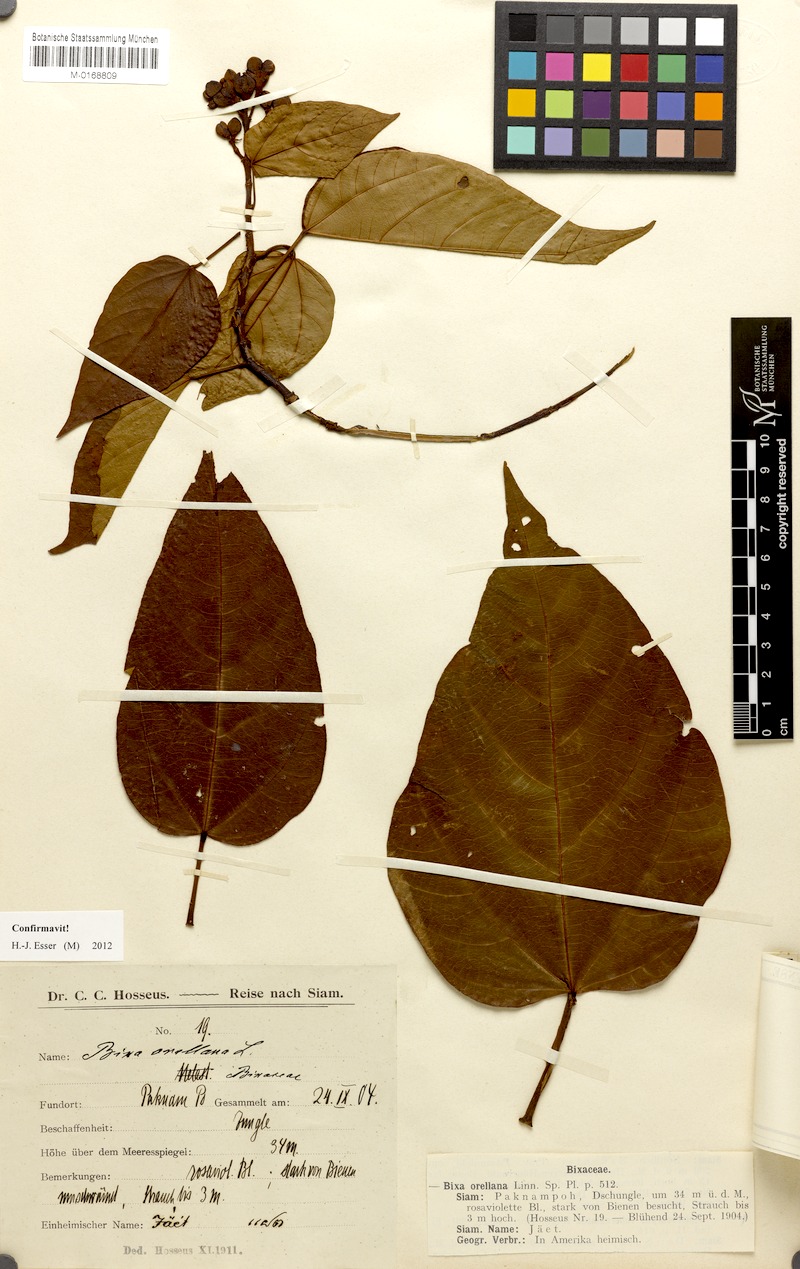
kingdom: Plantae
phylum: Tracheophyta
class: Magnoliopsida
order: Malvales
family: Bixaceae
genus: Bixa
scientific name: Bixa orellana
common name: Lipsticktree
